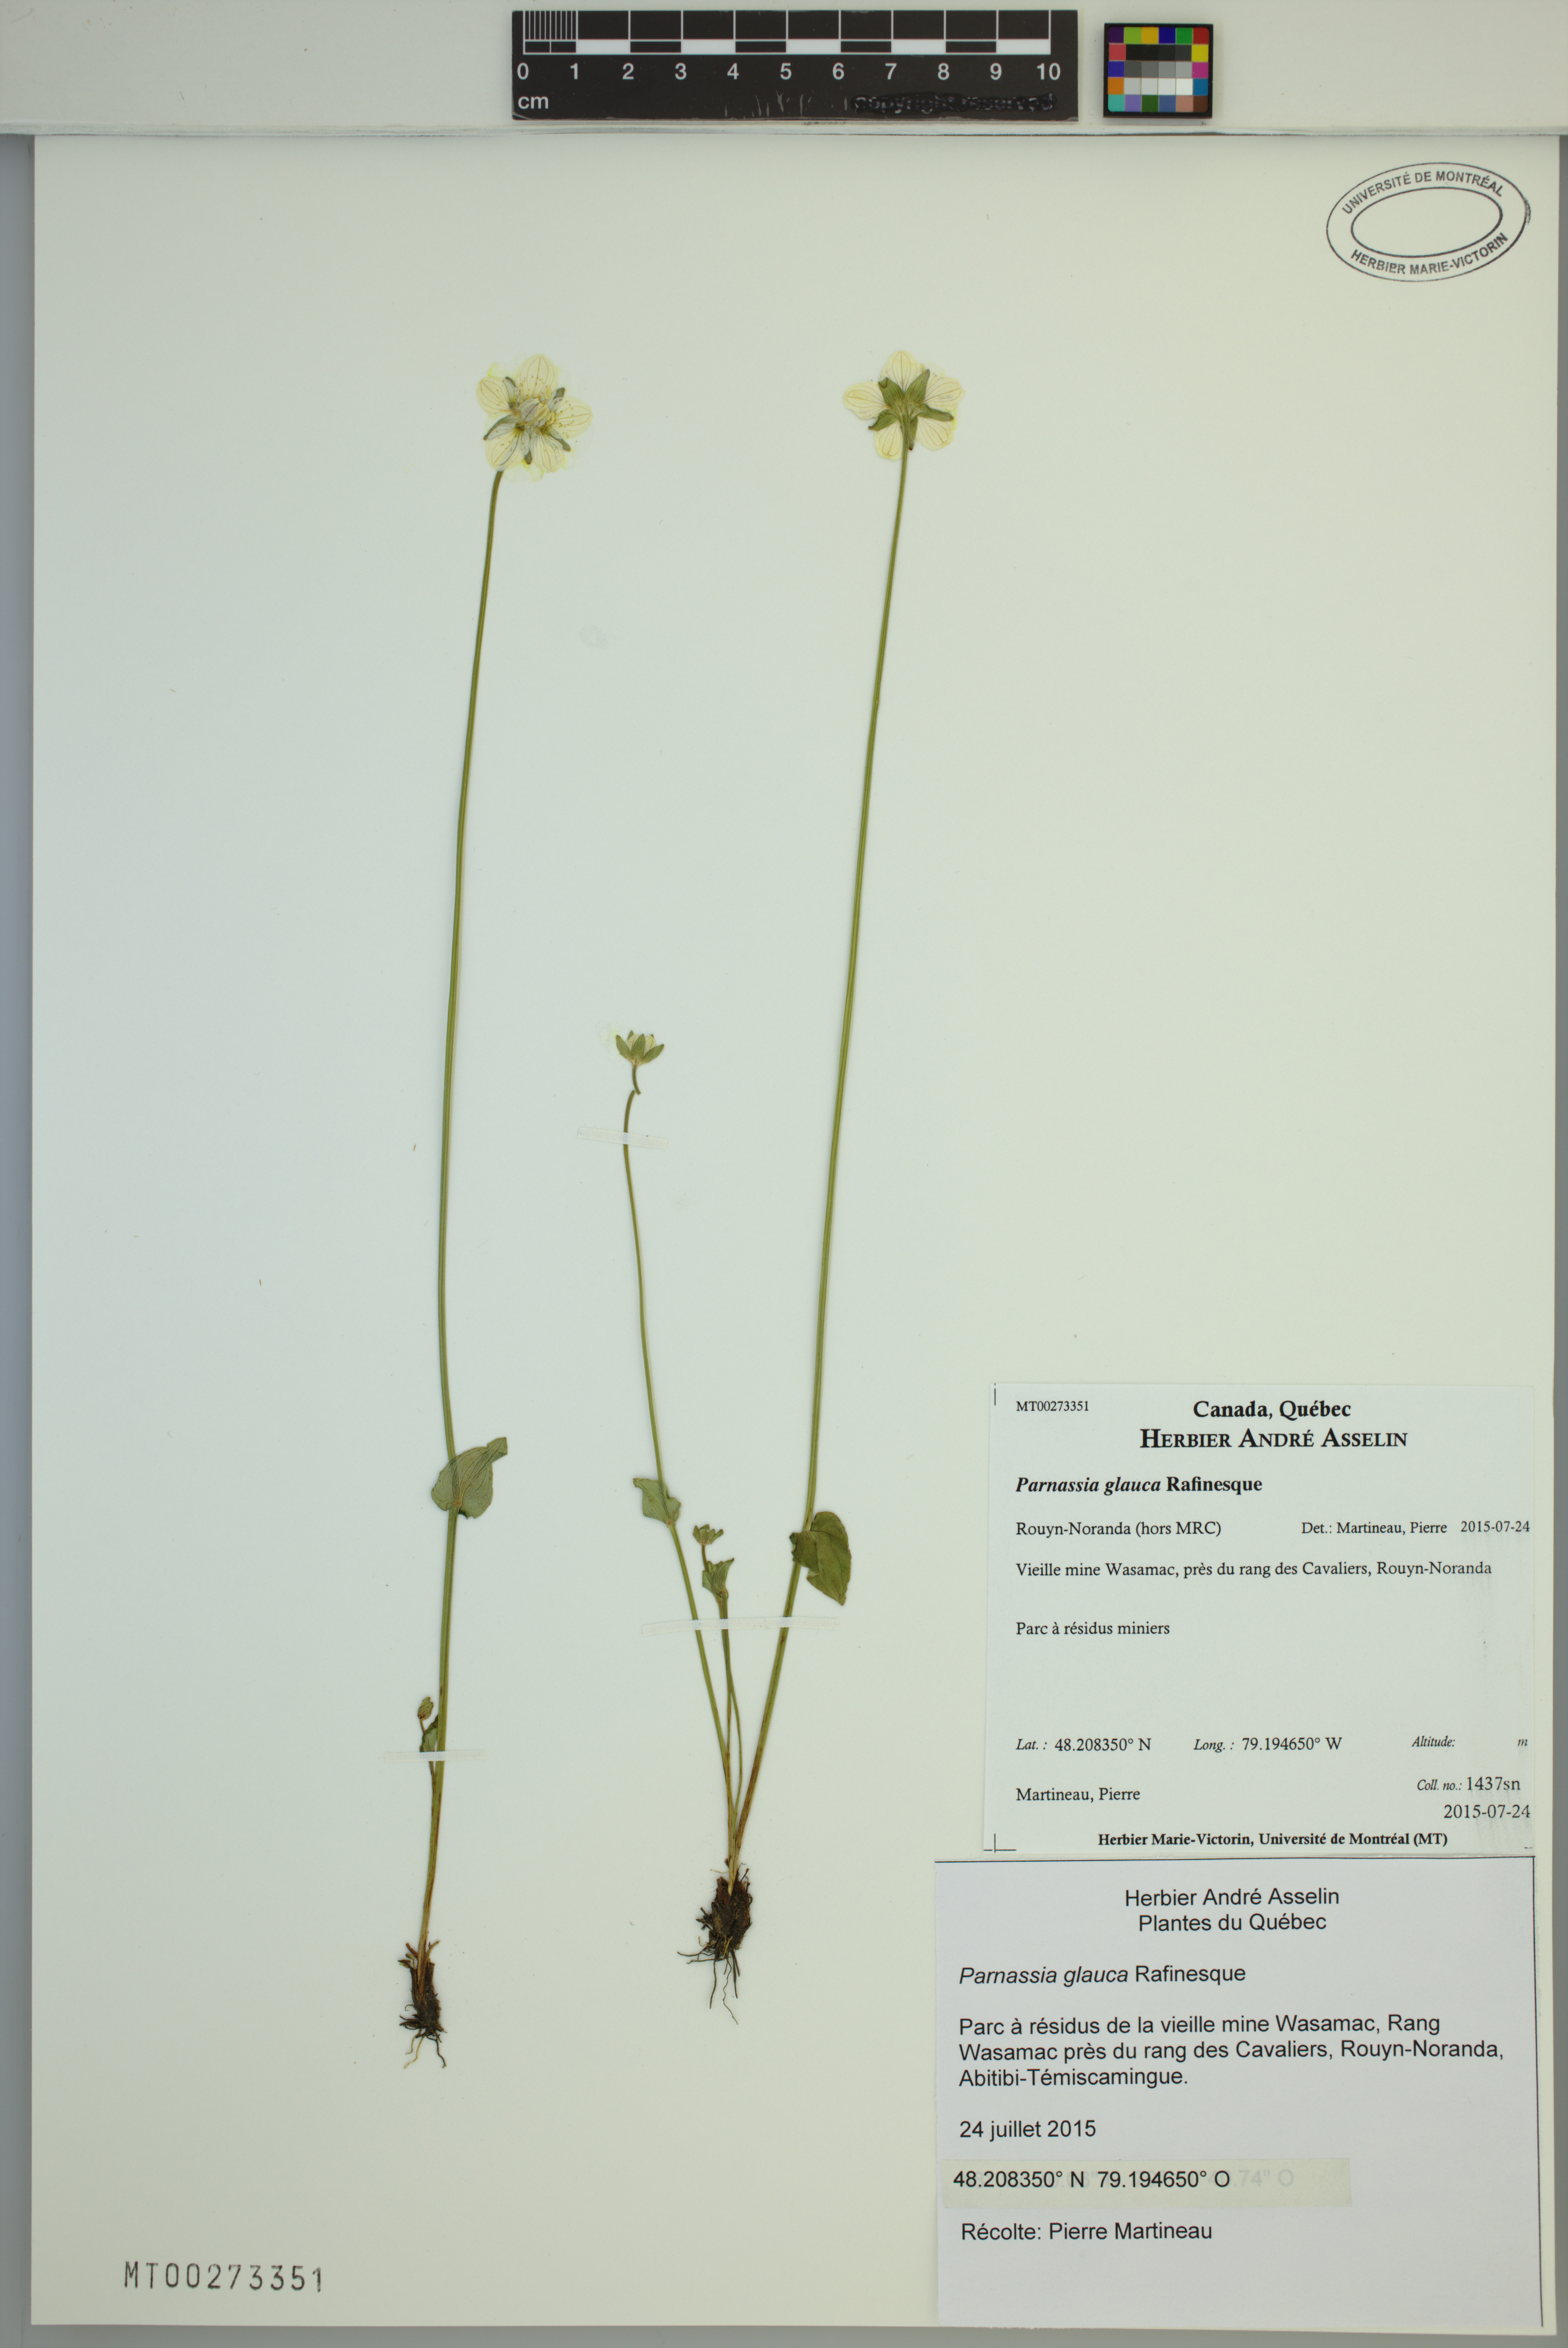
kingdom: Plantae
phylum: Tracheophyta
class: Magnoliopsida
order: Celastrales
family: Parnassiaceae
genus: Parnassia
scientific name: Parnassia glauca
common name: American grass-of-parnassus
